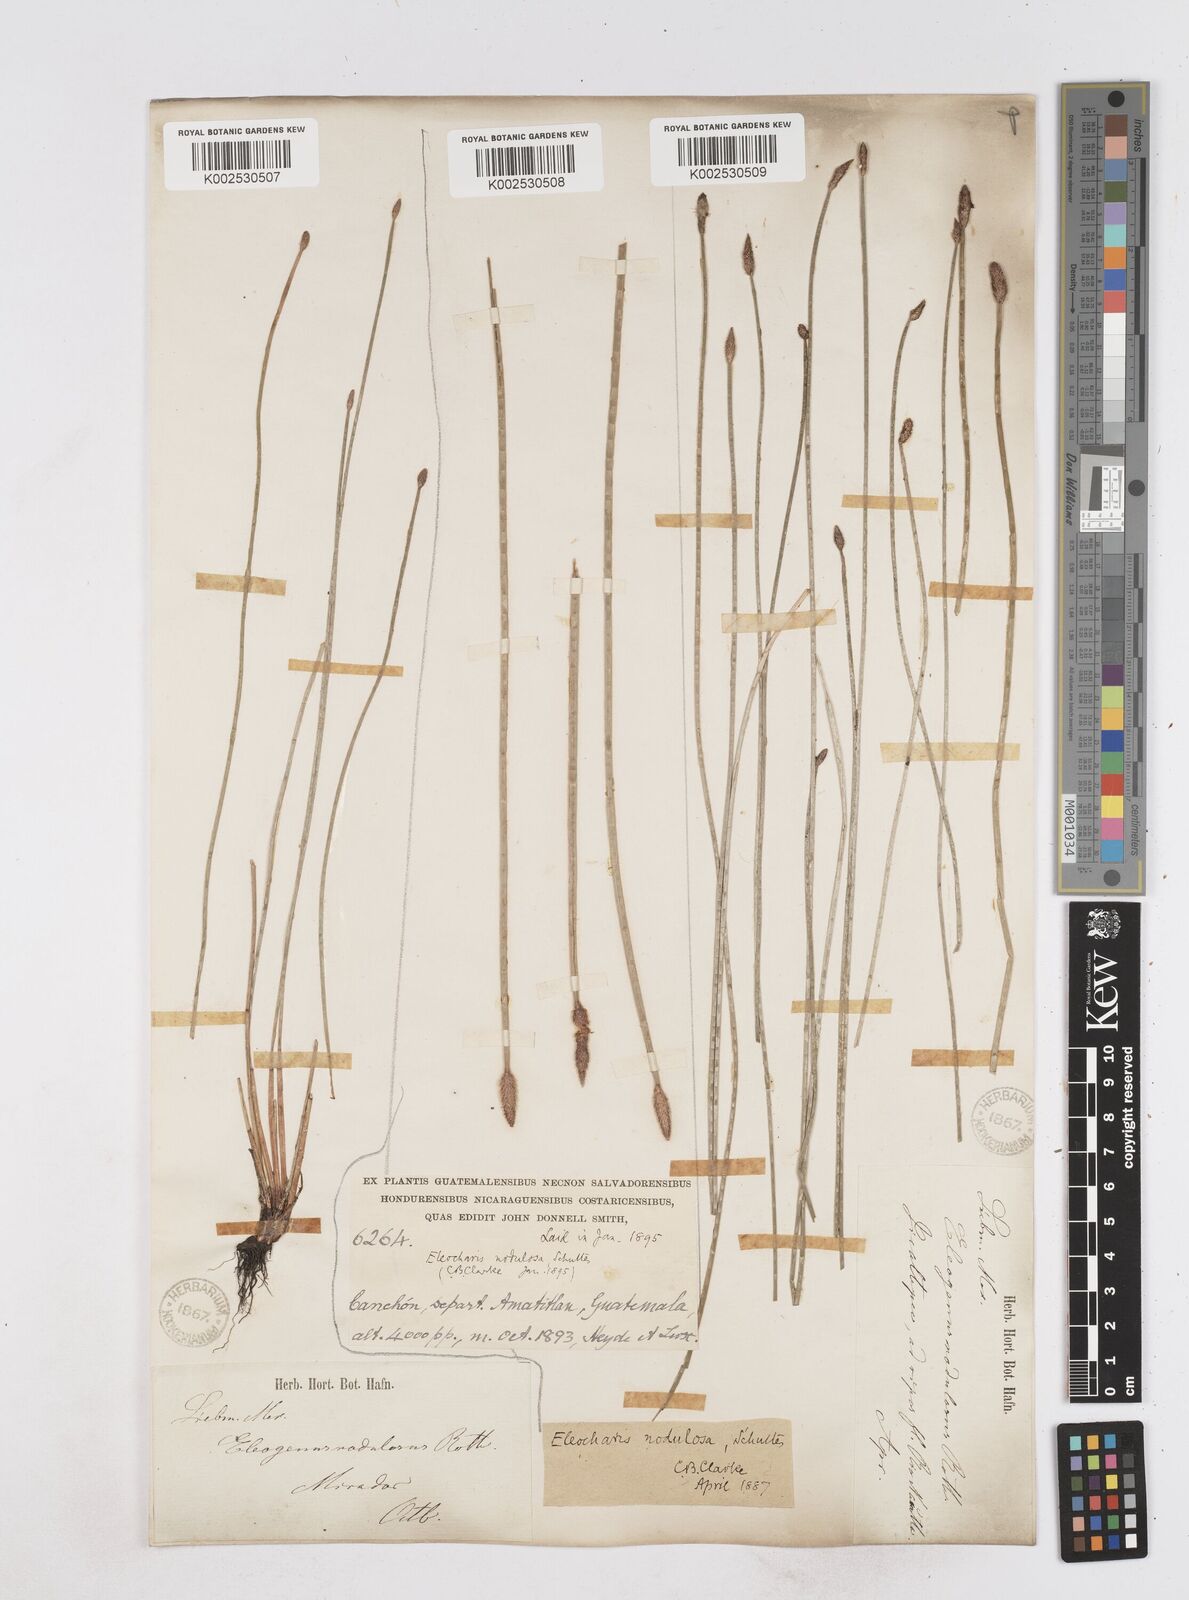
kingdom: Plantae
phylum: Tracheophyta
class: Liliopsida
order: Poales
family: Cyperaceae
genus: Eleocharis
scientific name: Eleocharis montana
